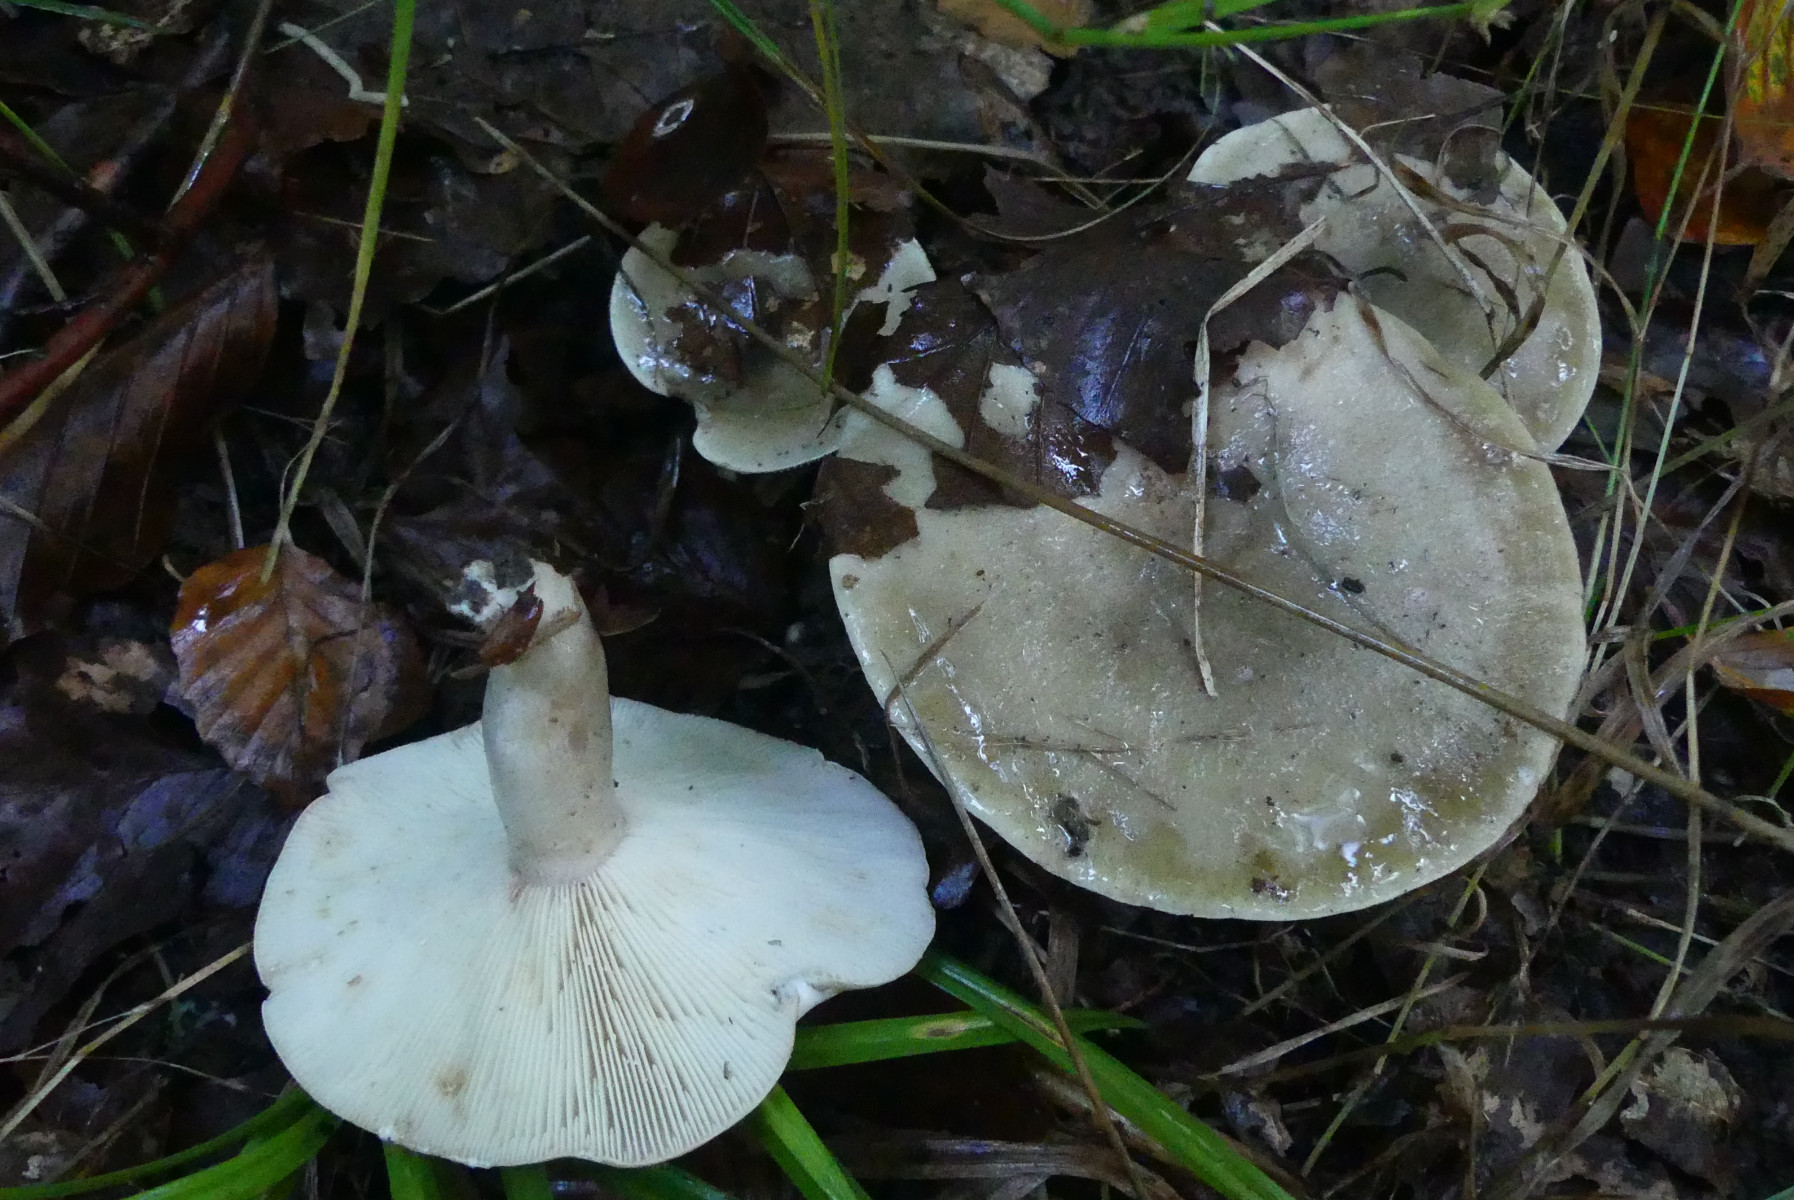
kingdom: Fungi
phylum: Basidiomycota
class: Agaricomycetes
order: Russulales
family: Russulaceae
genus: Lactarius
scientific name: Lactarius fluens
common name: lysrandet mælkehat
